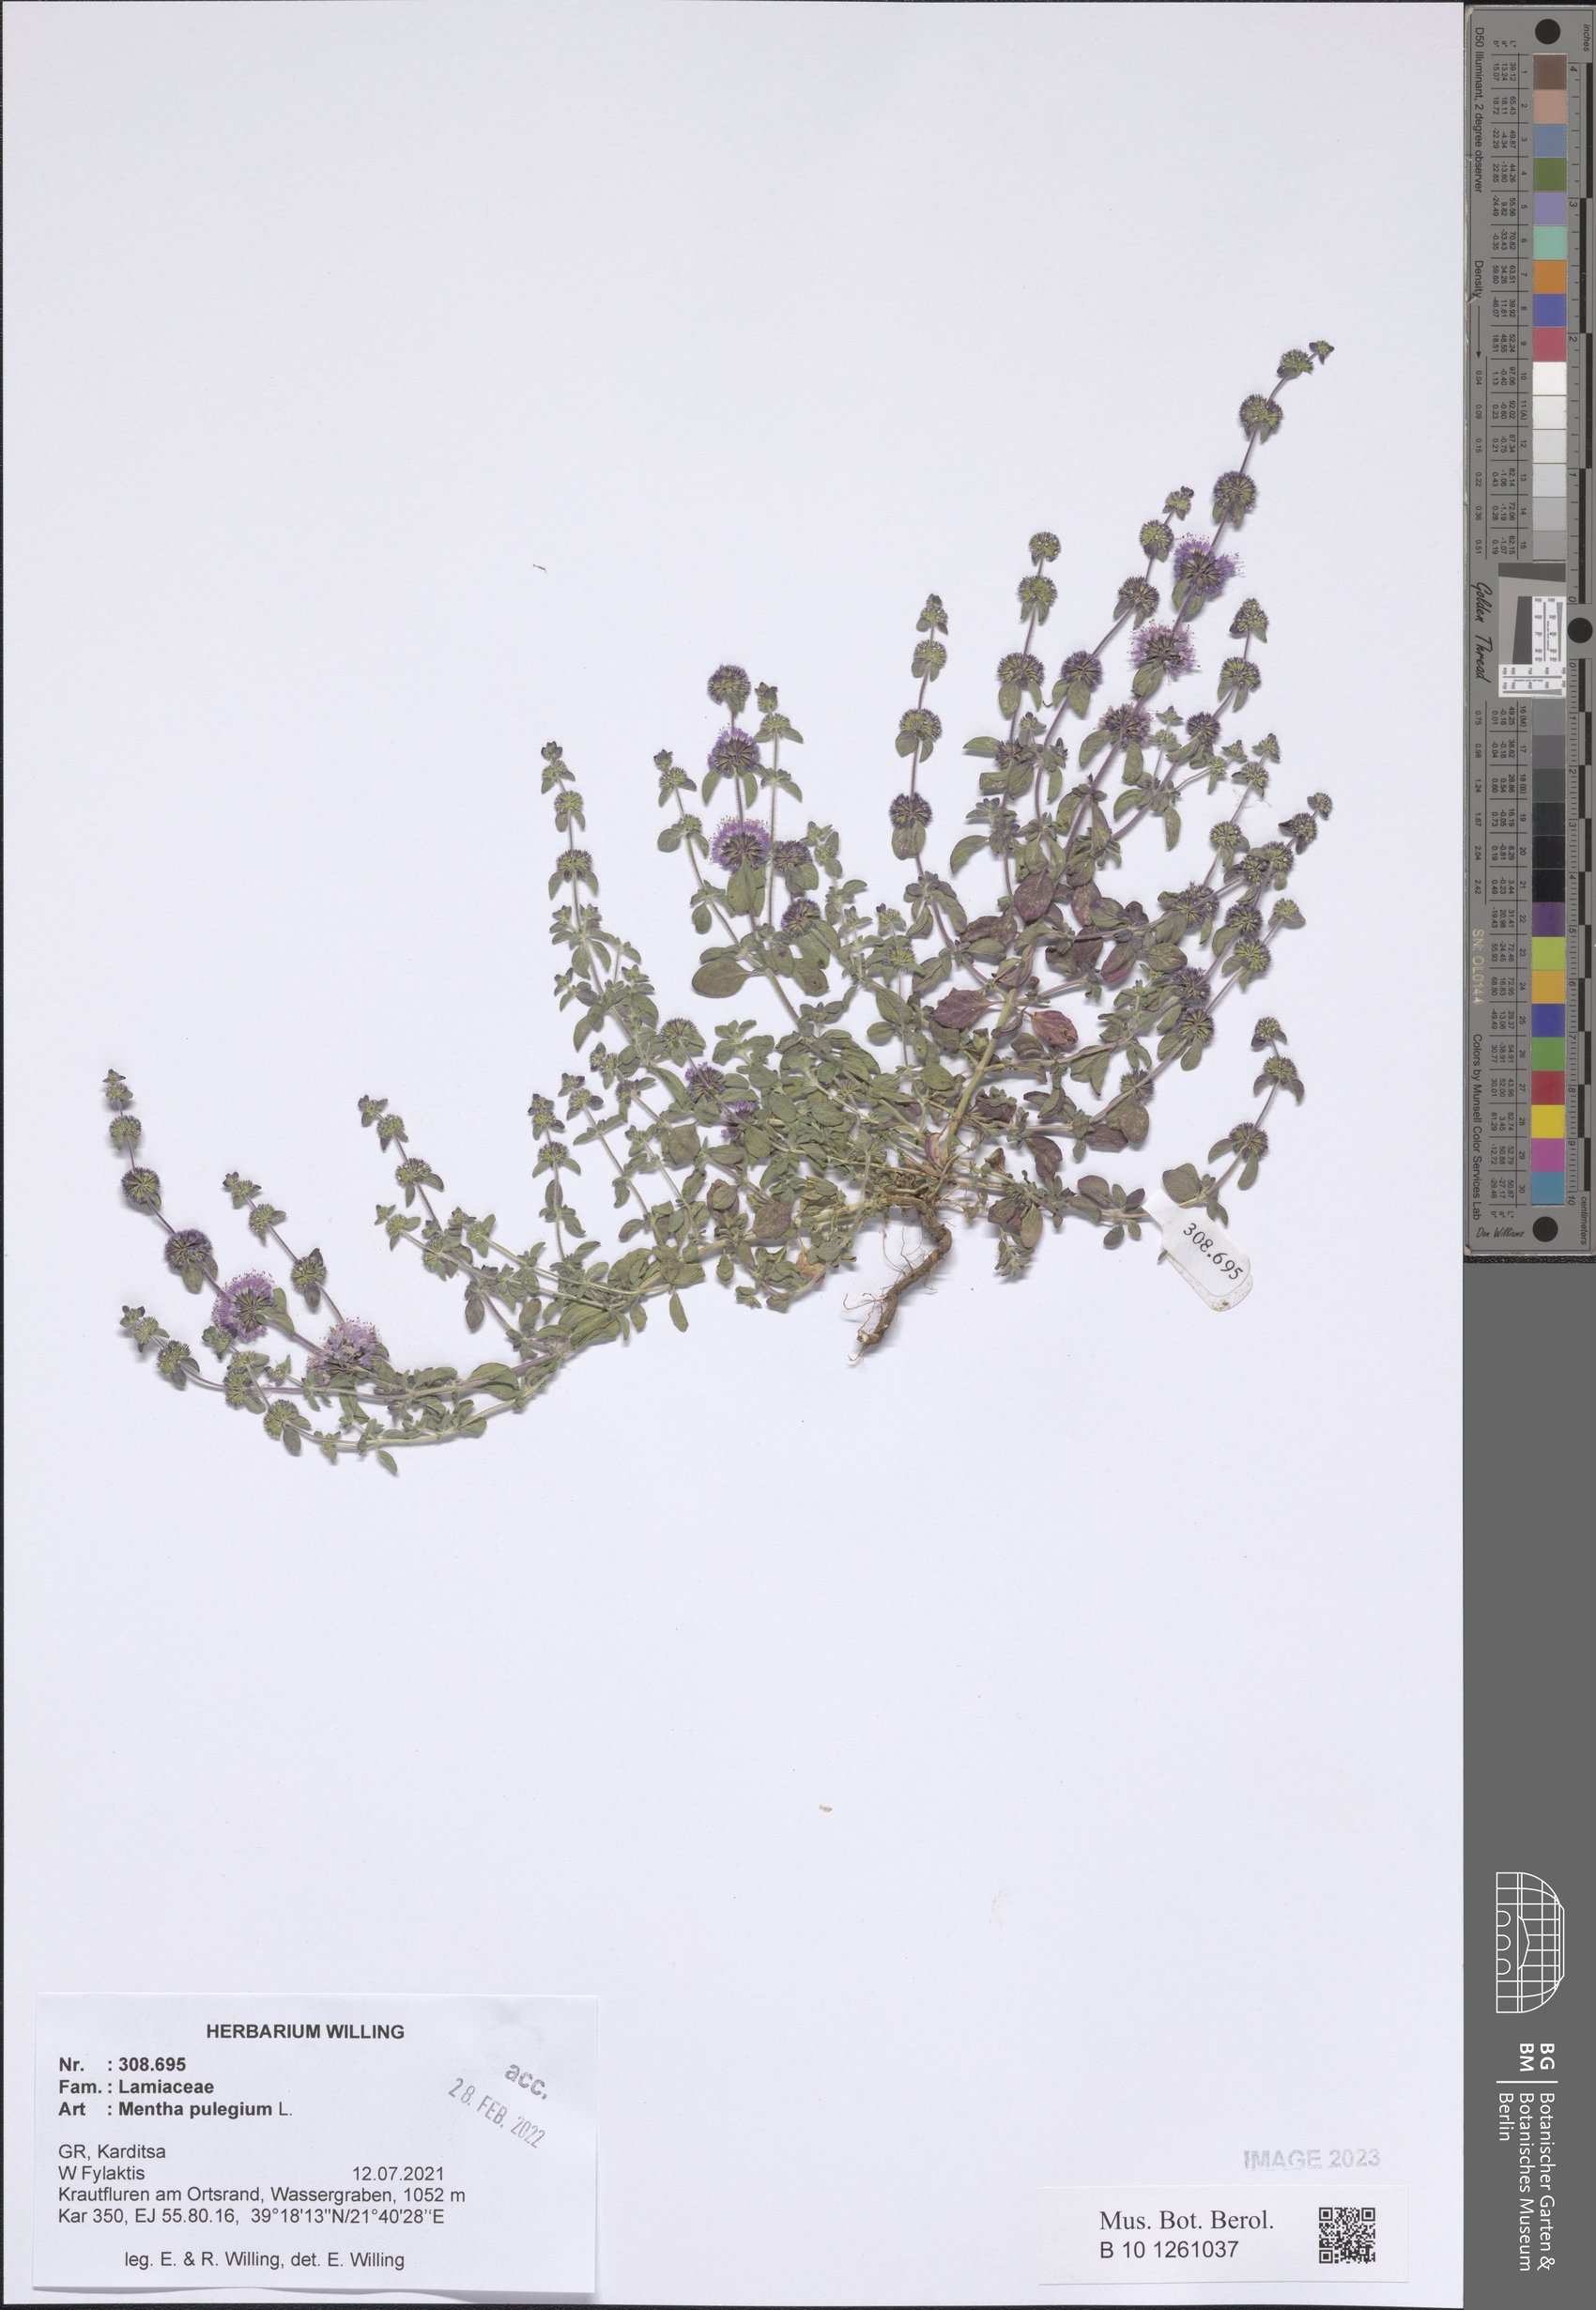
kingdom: Plantae
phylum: Tracheophyta
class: Magnoliopsida
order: Lamiales
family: Lamiaceae
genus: Mentha
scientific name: Mentha pulegium
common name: Pennyroyal
